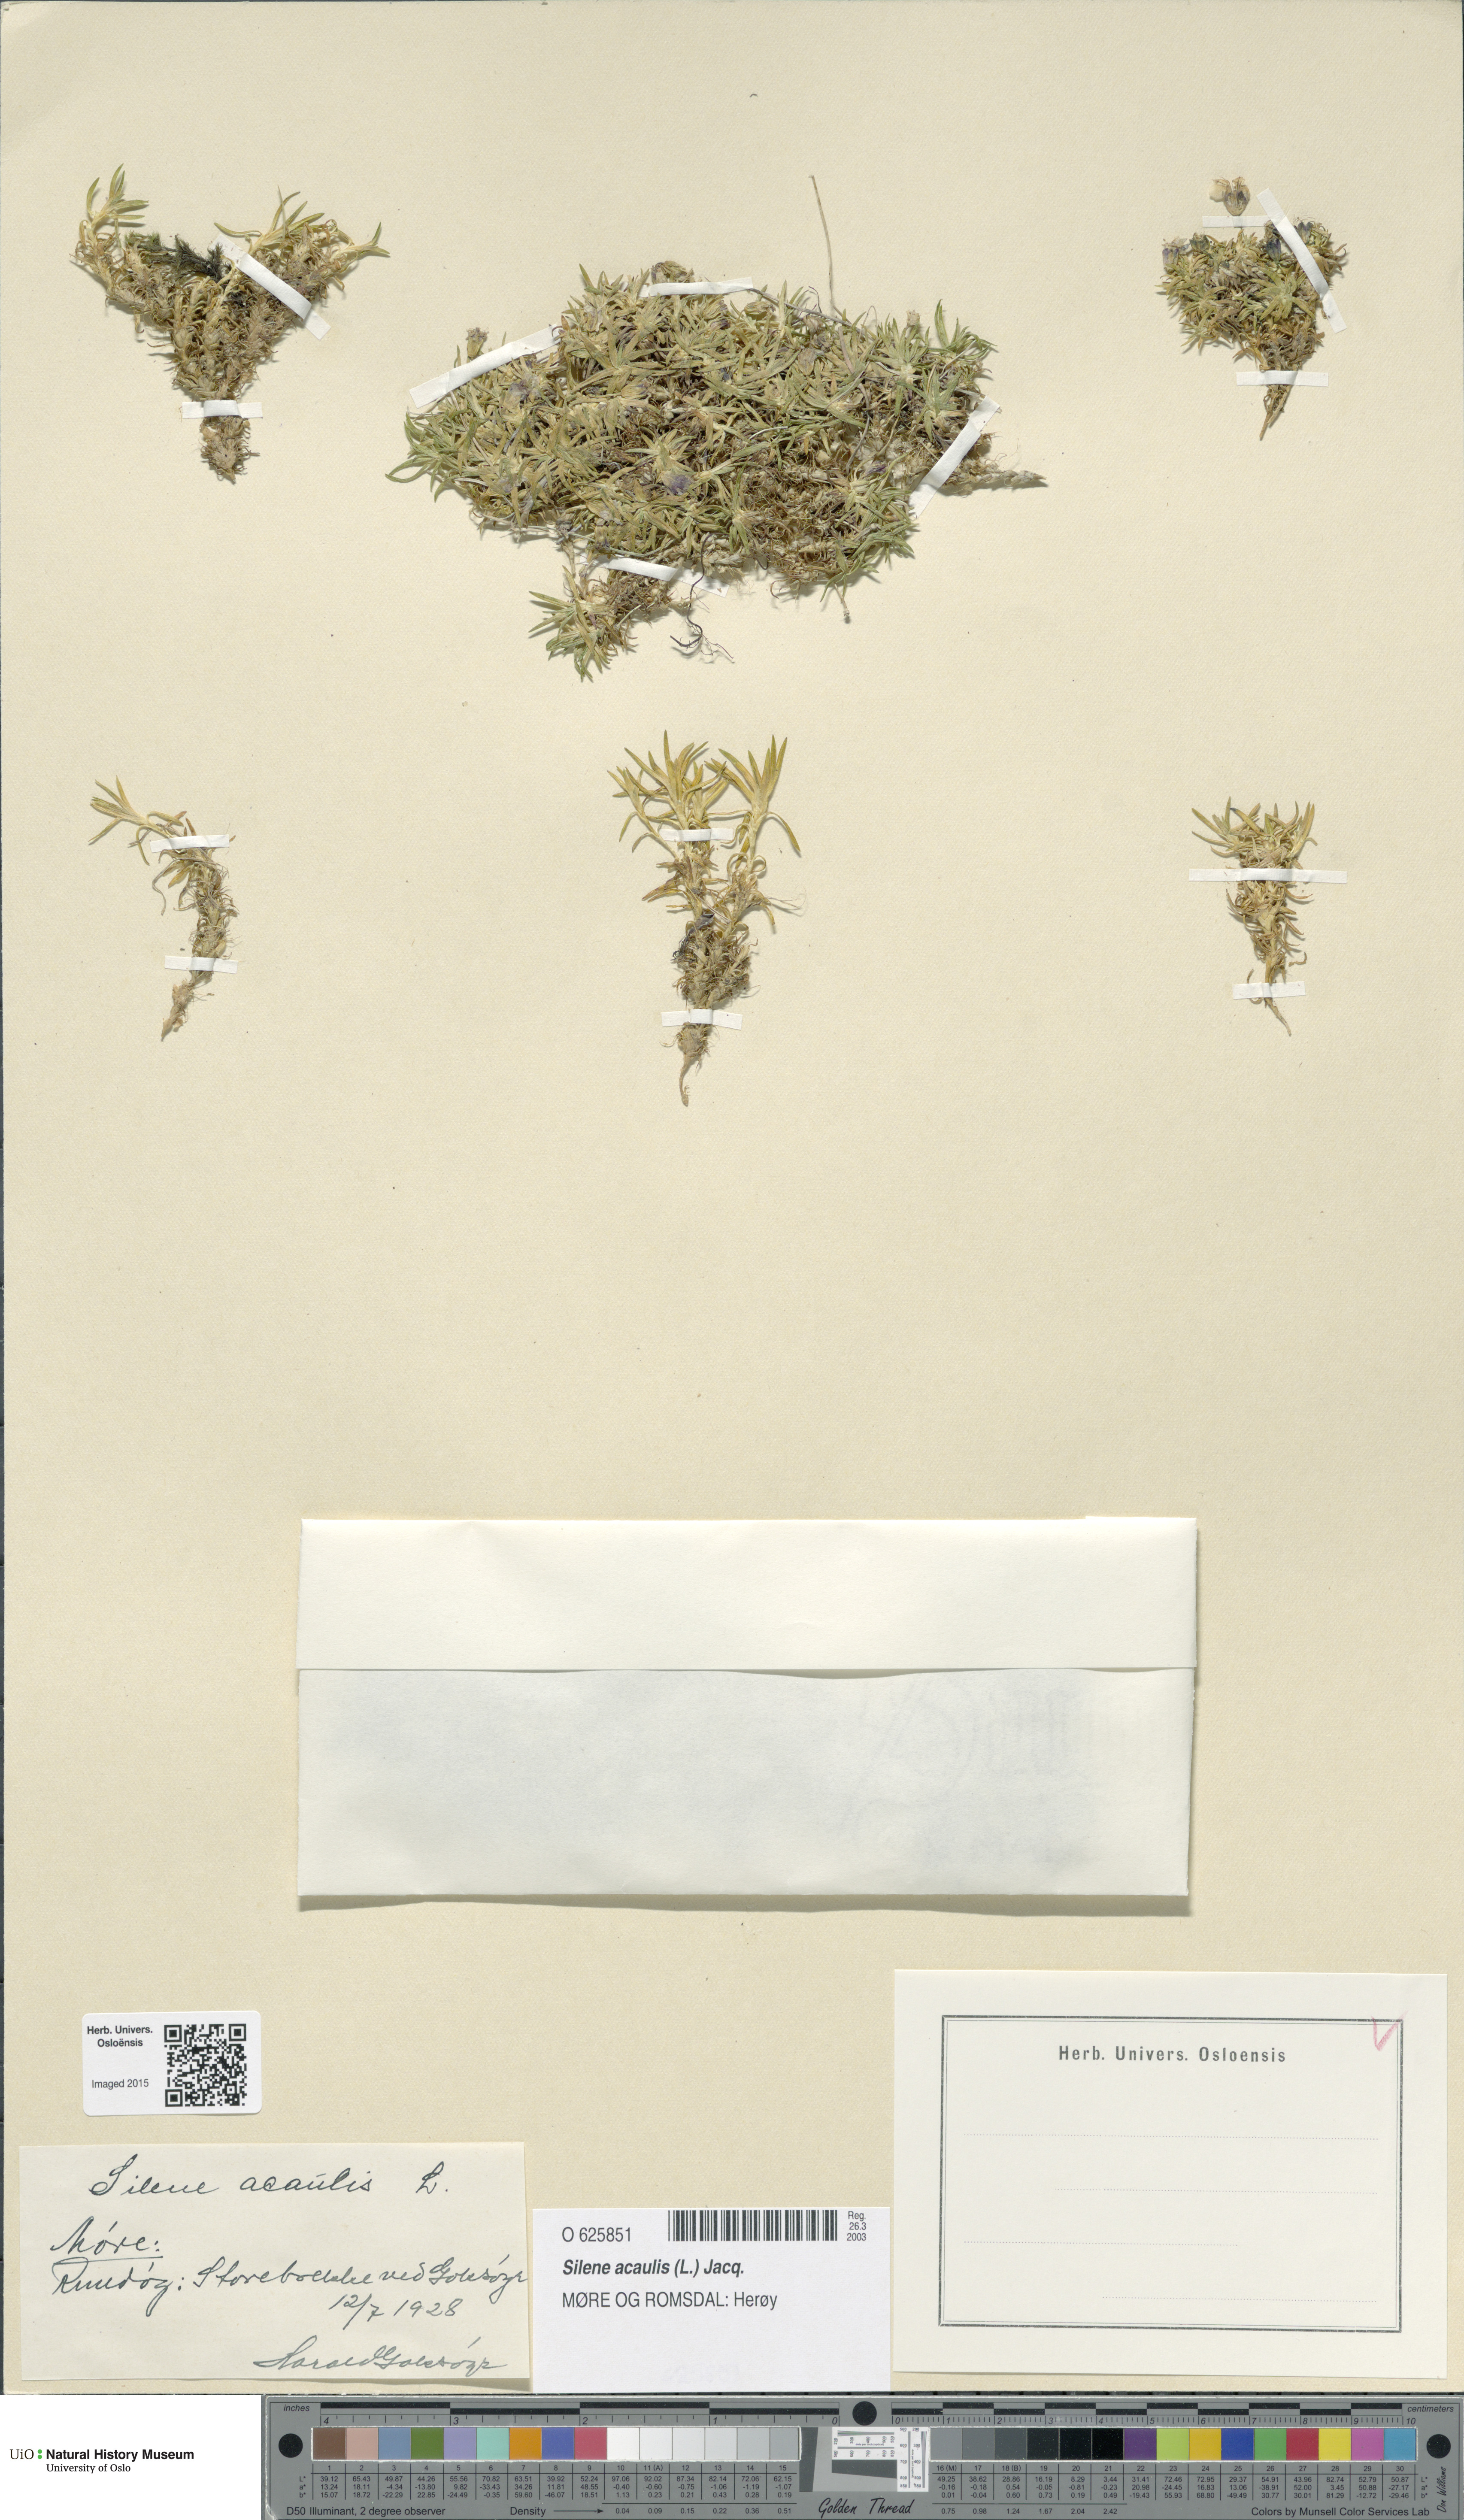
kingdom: Plantae
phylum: Tracheophyta
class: Magnoliopsida
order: Caryophyllales
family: Caryophyllaceae
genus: Silene
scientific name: Silene acaulis
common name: Moss campion
